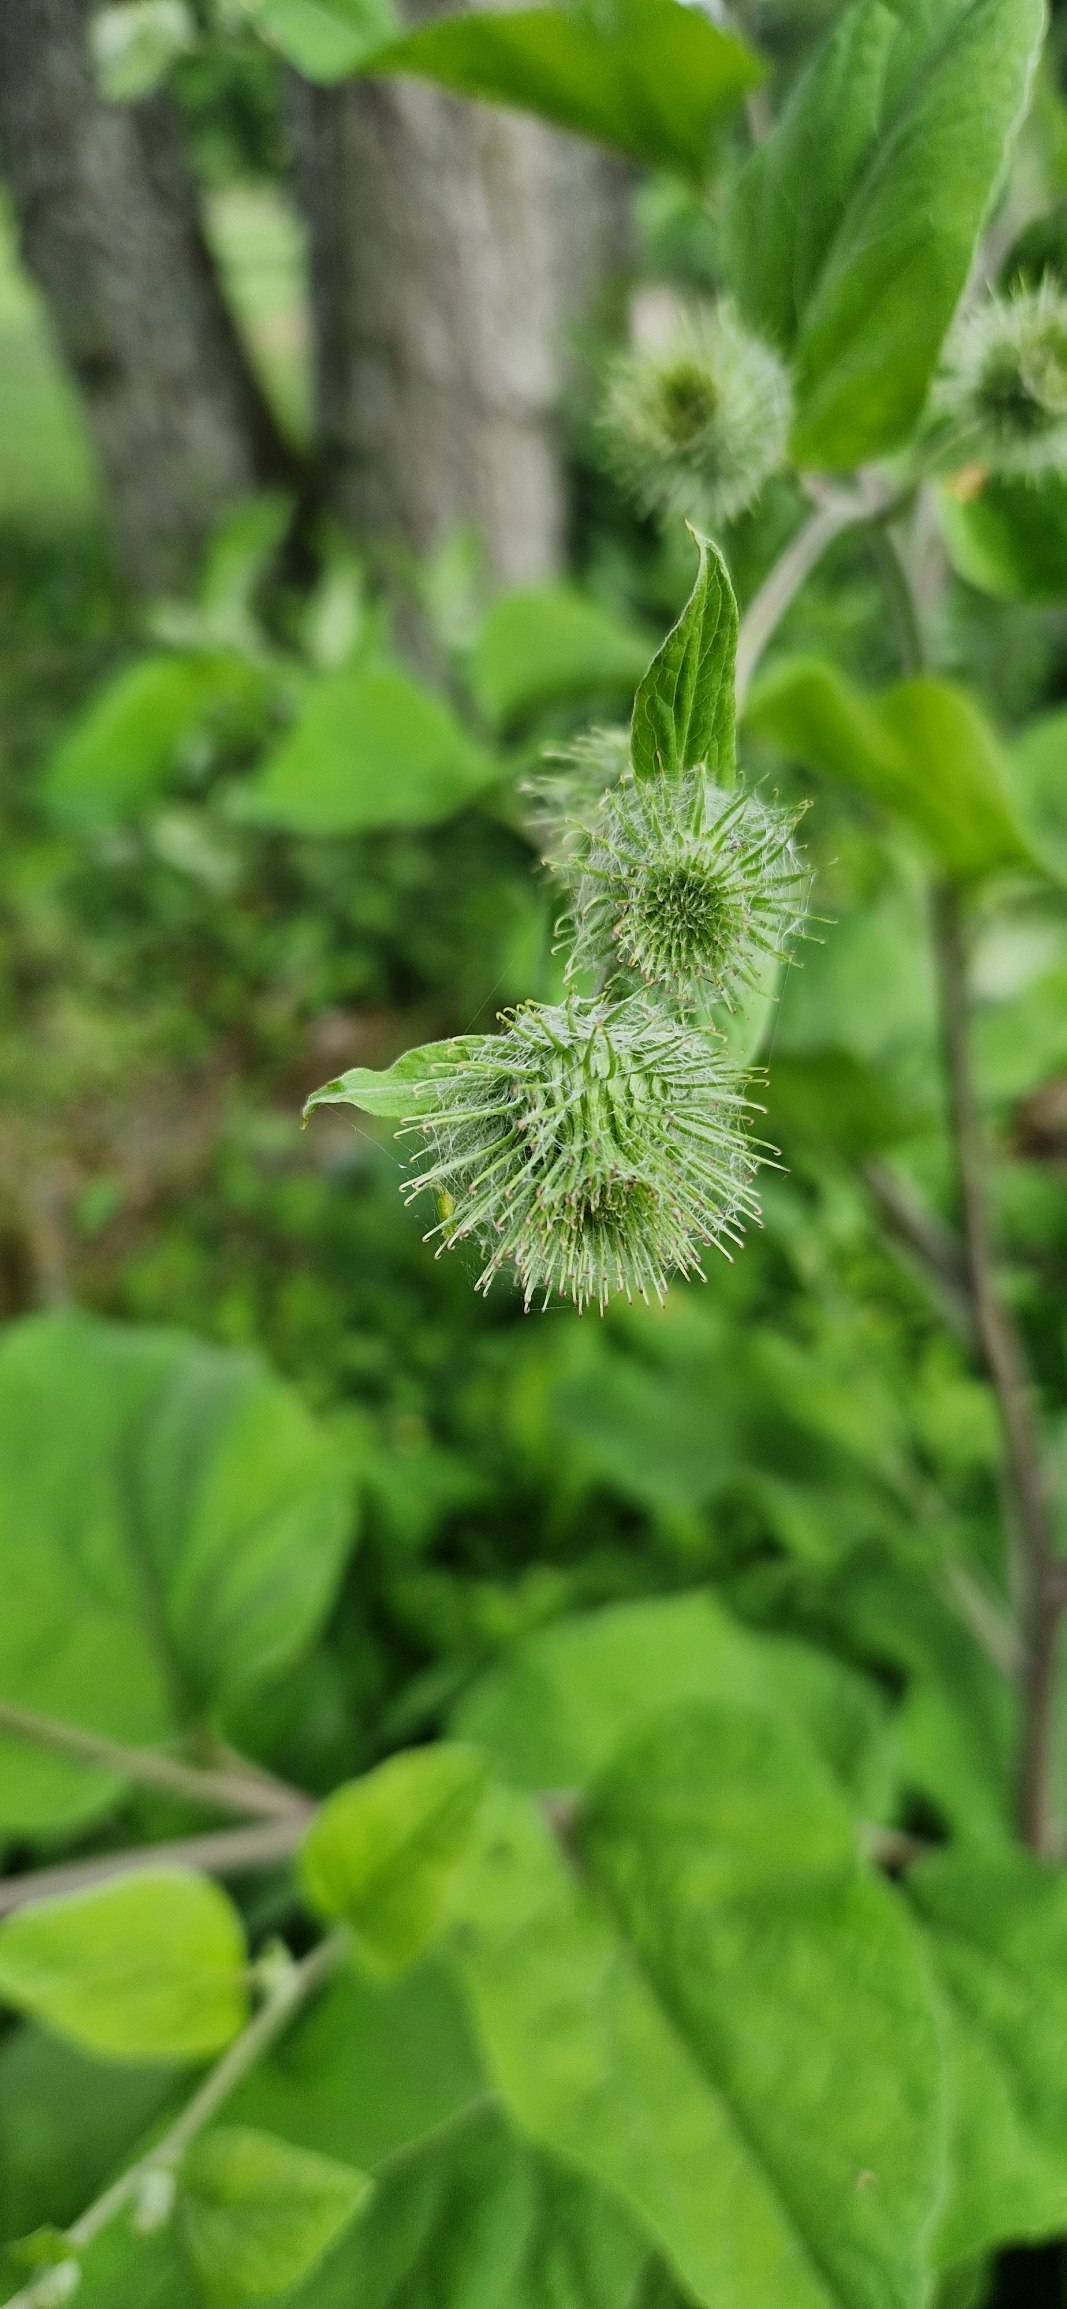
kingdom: Plantae
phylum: Tracheophyta
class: Magnoliopsida
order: Asterales
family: Asteraceae
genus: Arctium
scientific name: Arctium nemorosum
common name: Skov-burre
